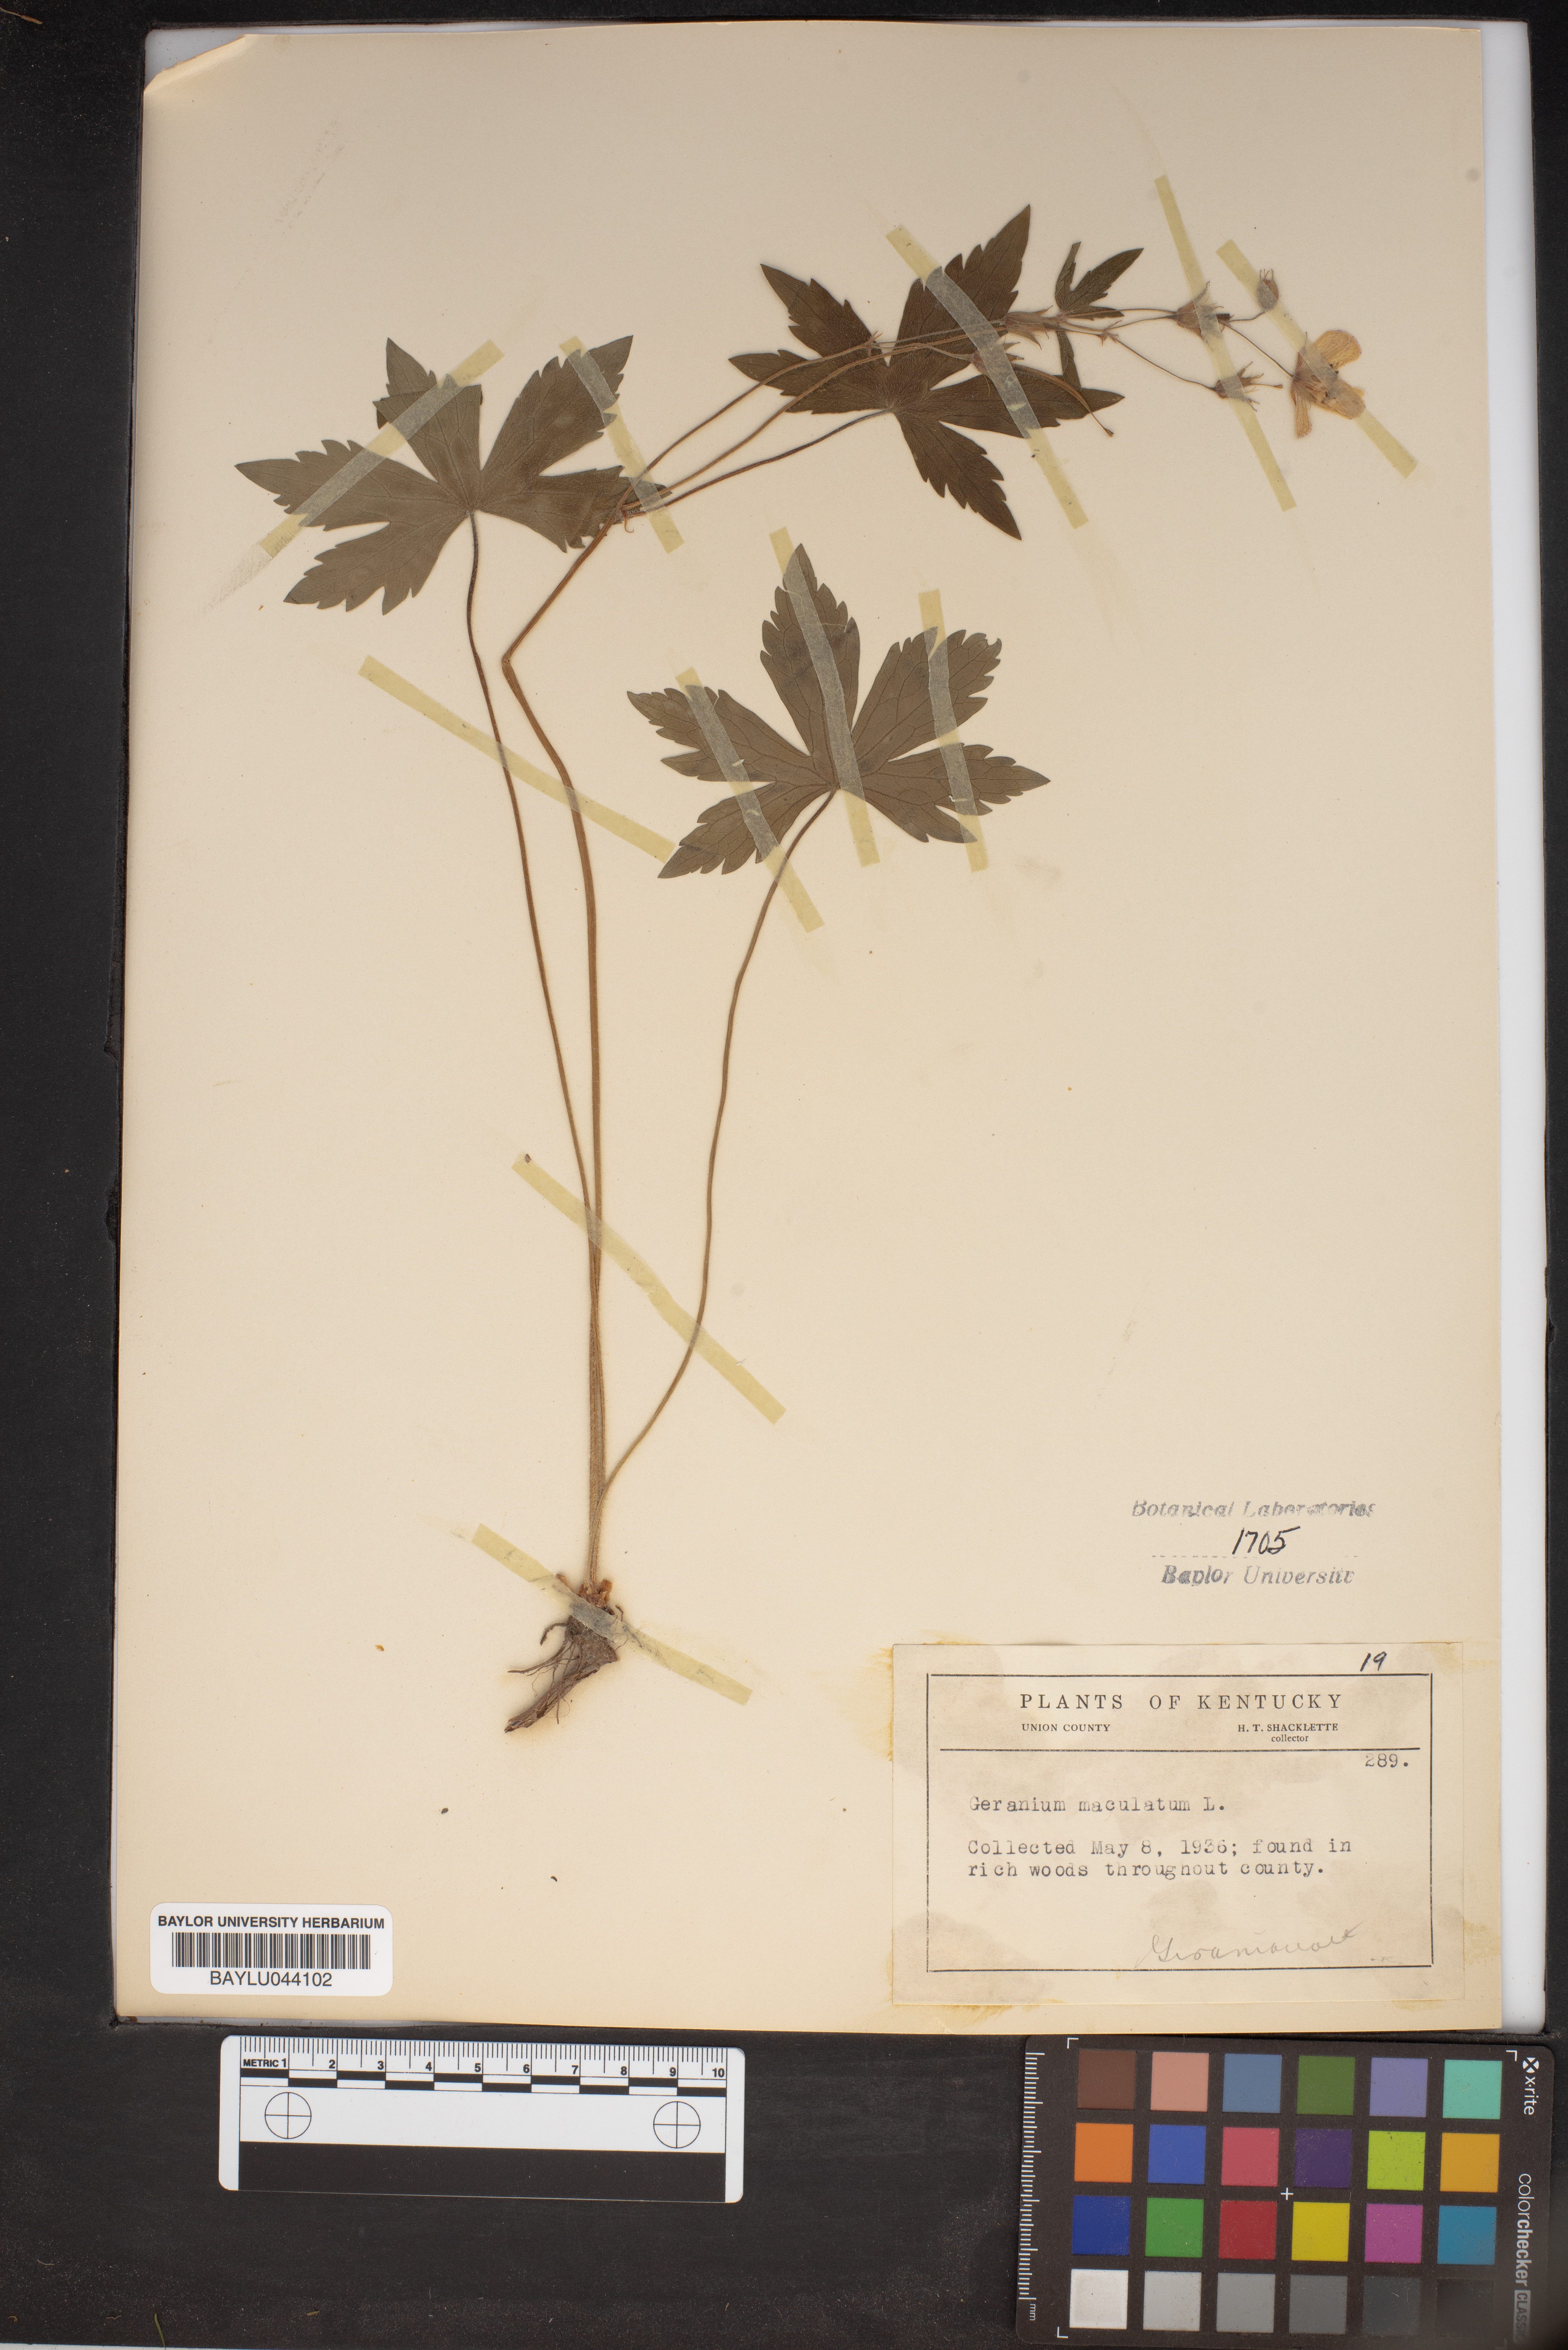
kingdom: Plantae
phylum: Tracheophyta
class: Magnoliopsida
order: Geraniales
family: Geraniaceae
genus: Geranium
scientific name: Geranium maculatum
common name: Spotted geranium
